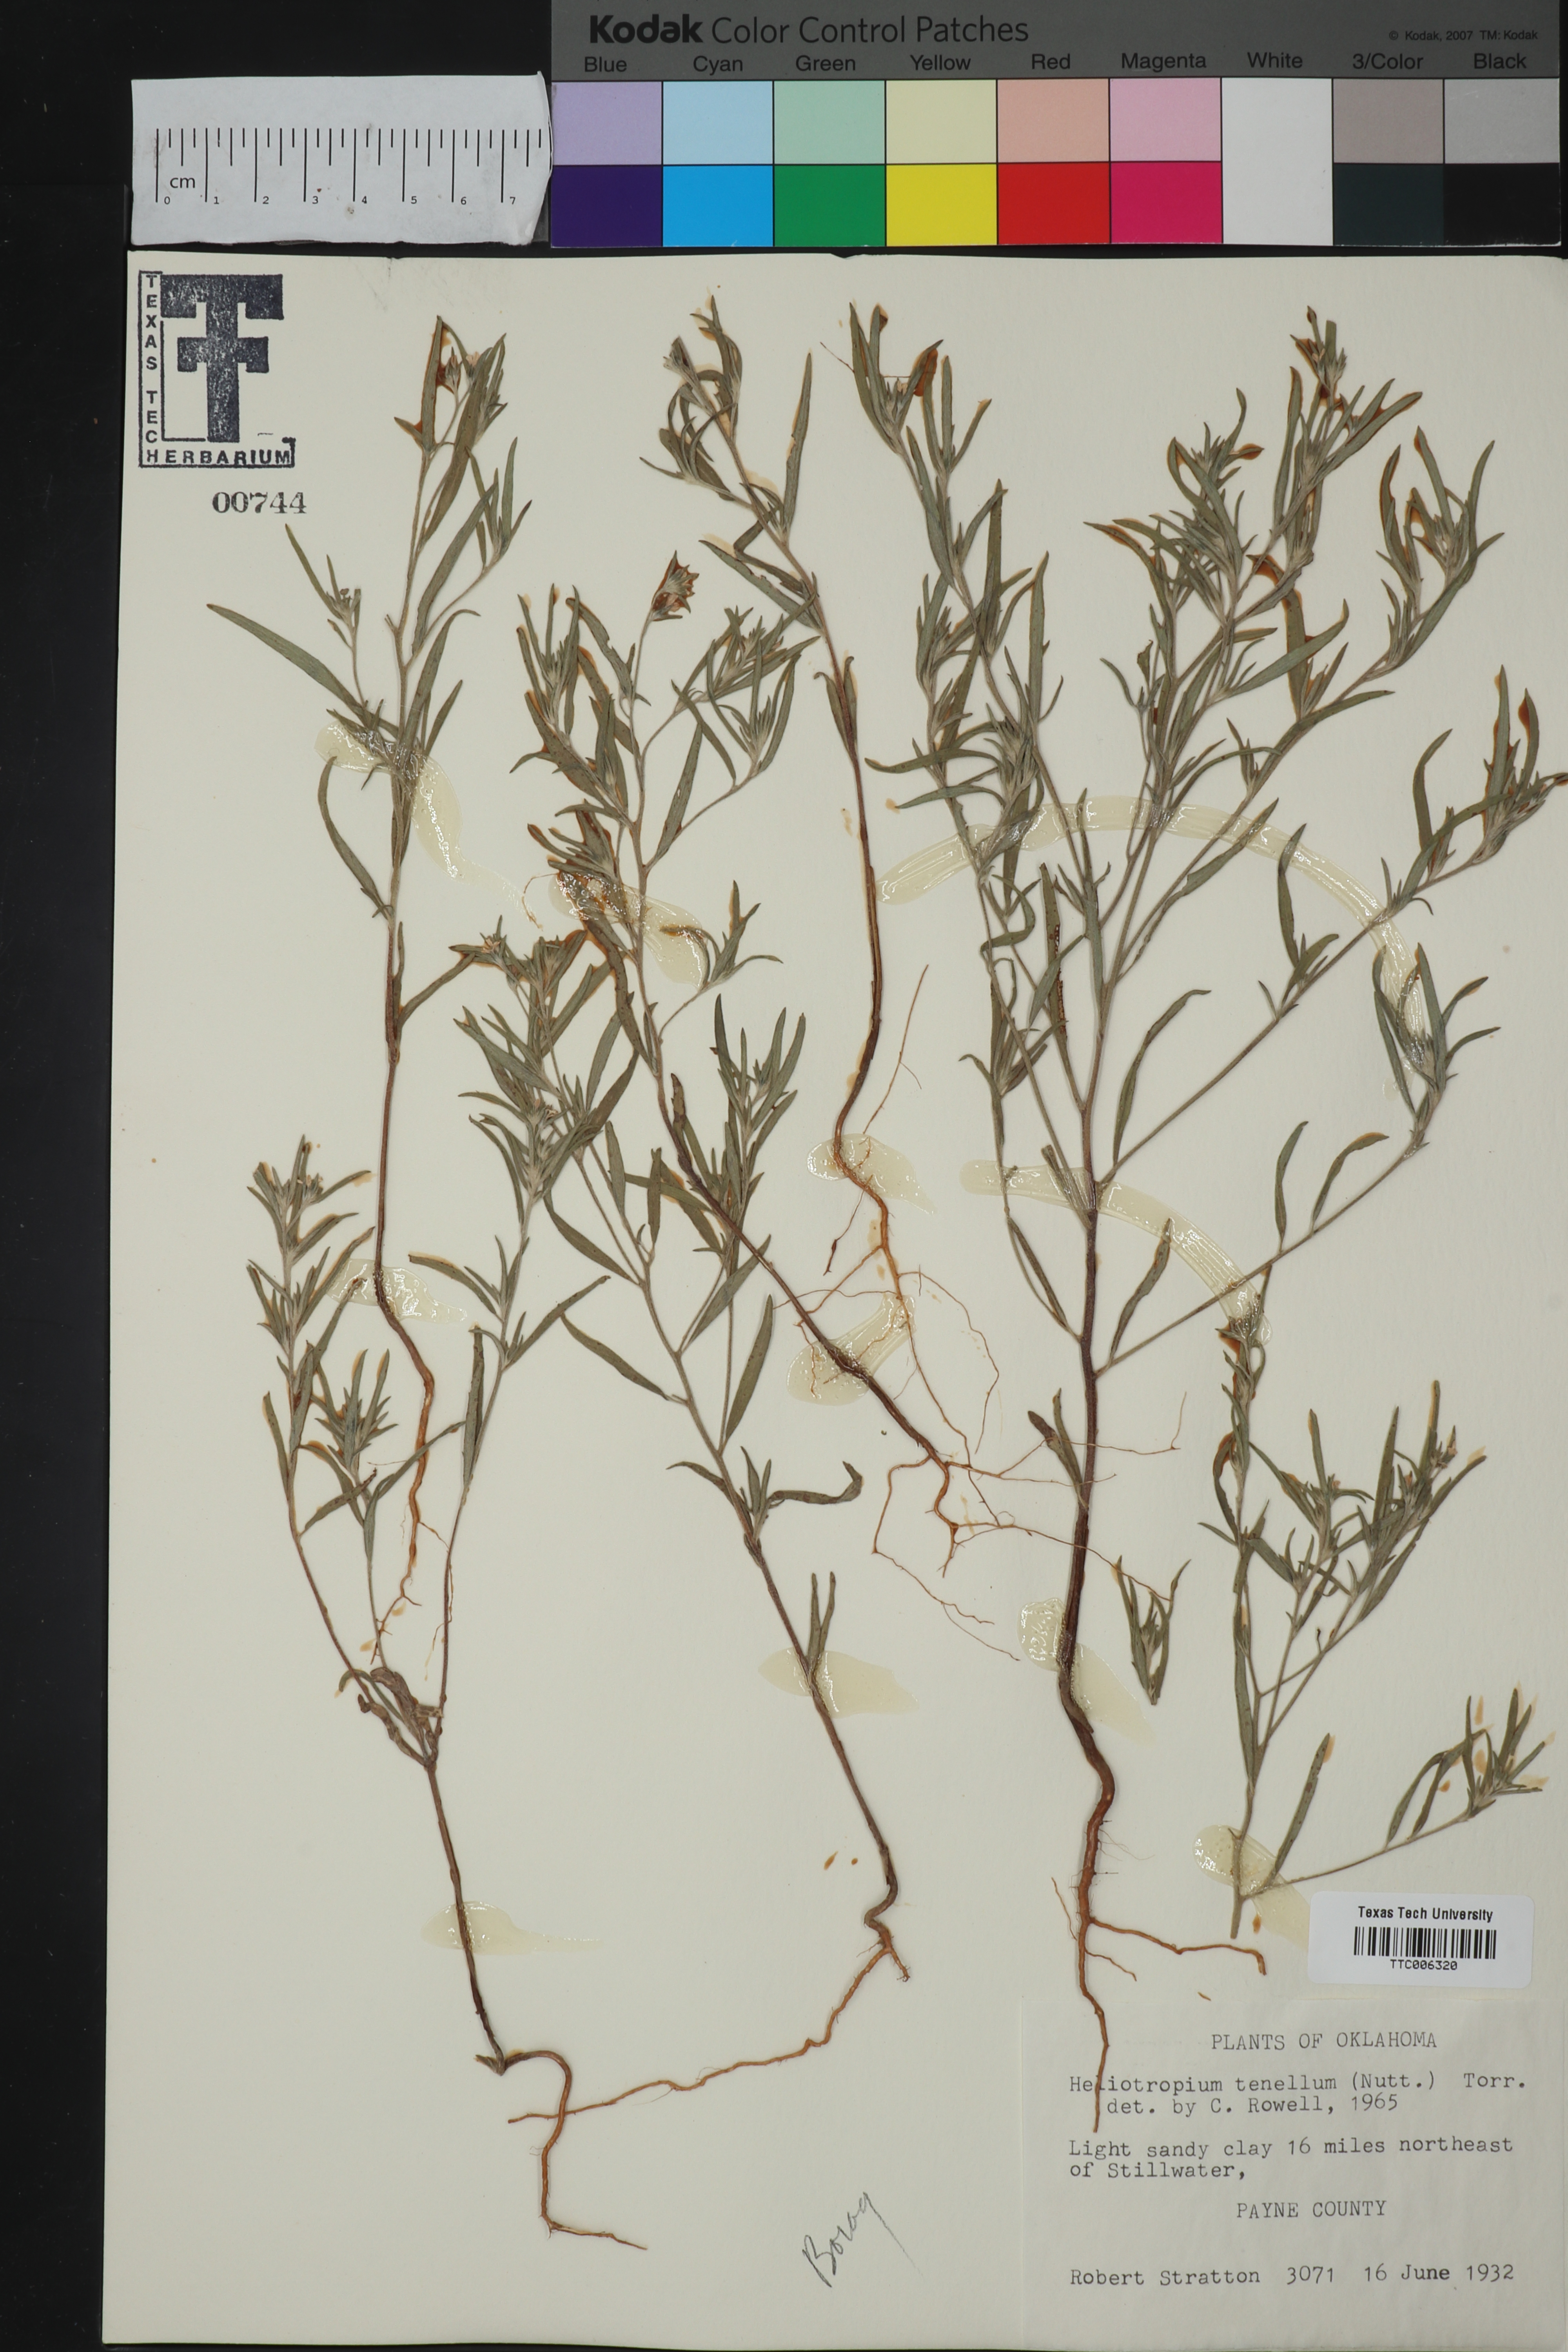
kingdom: Plantae
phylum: Tracheophyta
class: Magnoliopsida
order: Boraginales
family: Heliotropiaceae
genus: Euploca
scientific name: Euploca tenella
